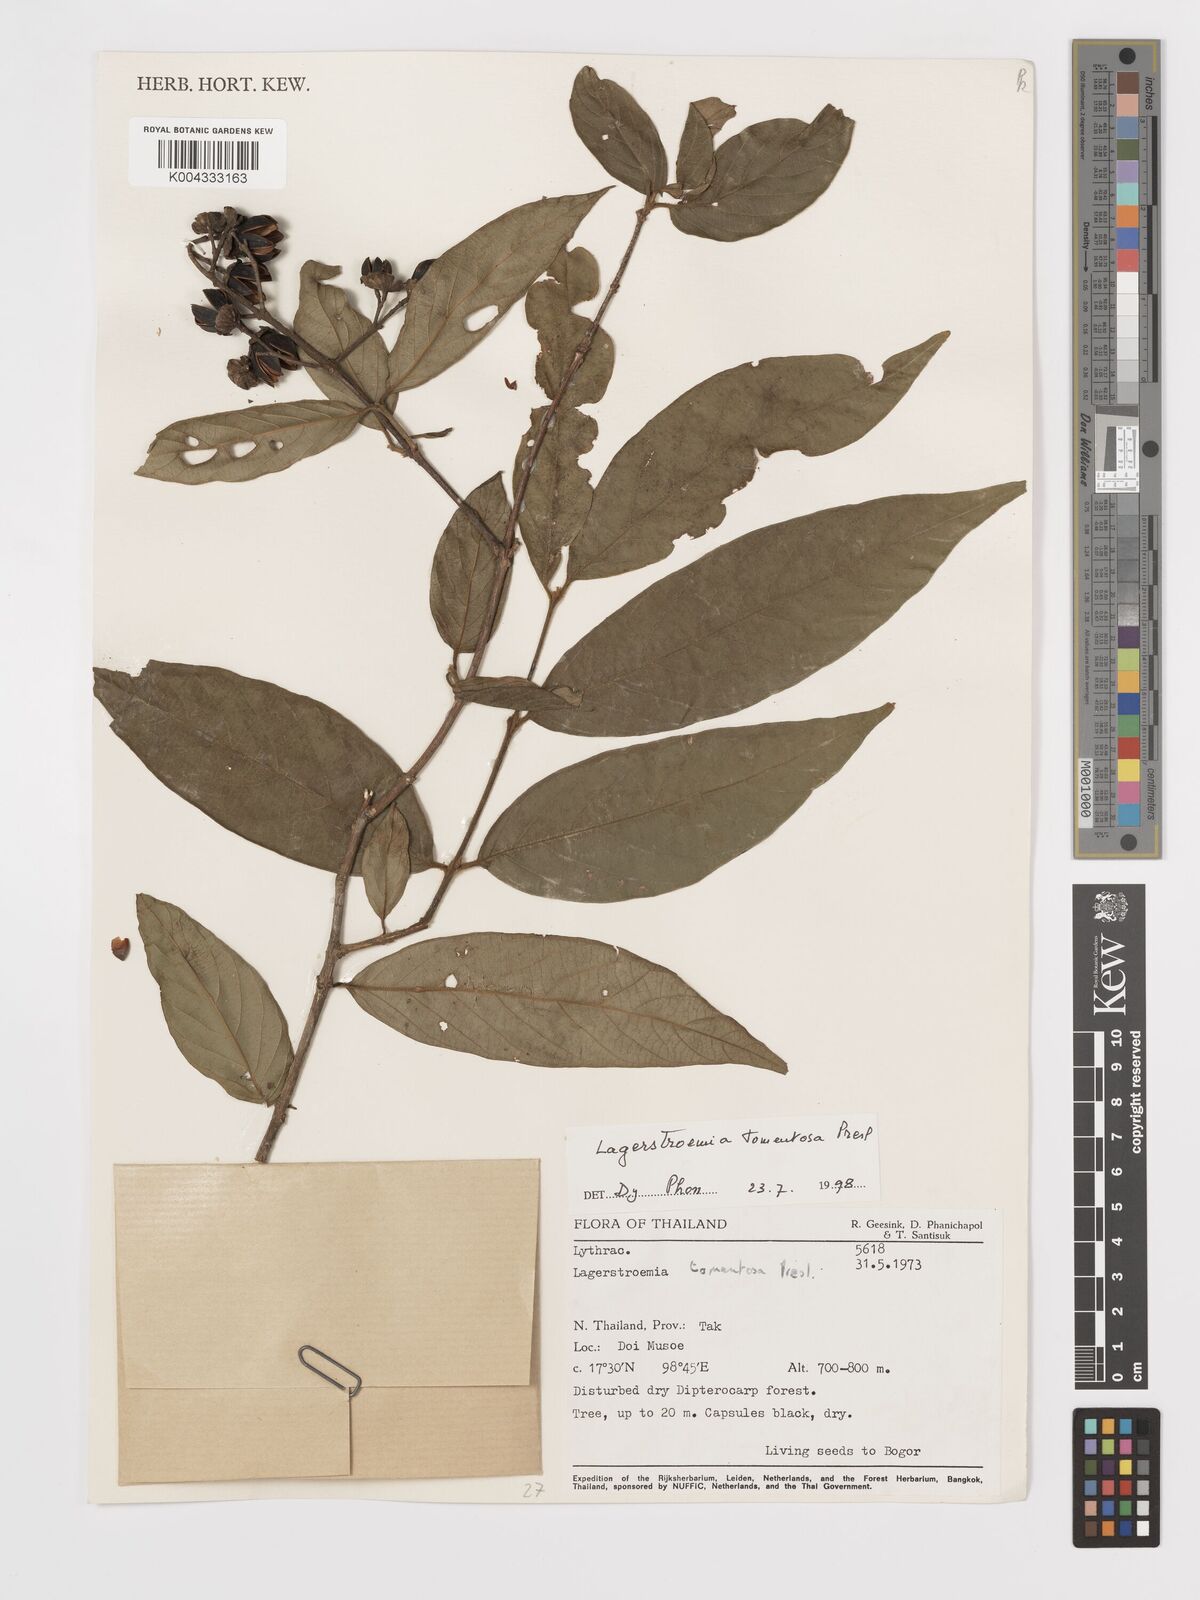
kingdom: Plantae
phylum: Tracheophyta
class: Magnoliopsida
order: Myrtales
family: Lythraceae
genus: Lagerstroemia
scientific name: Lagerstroemia tomentosa
